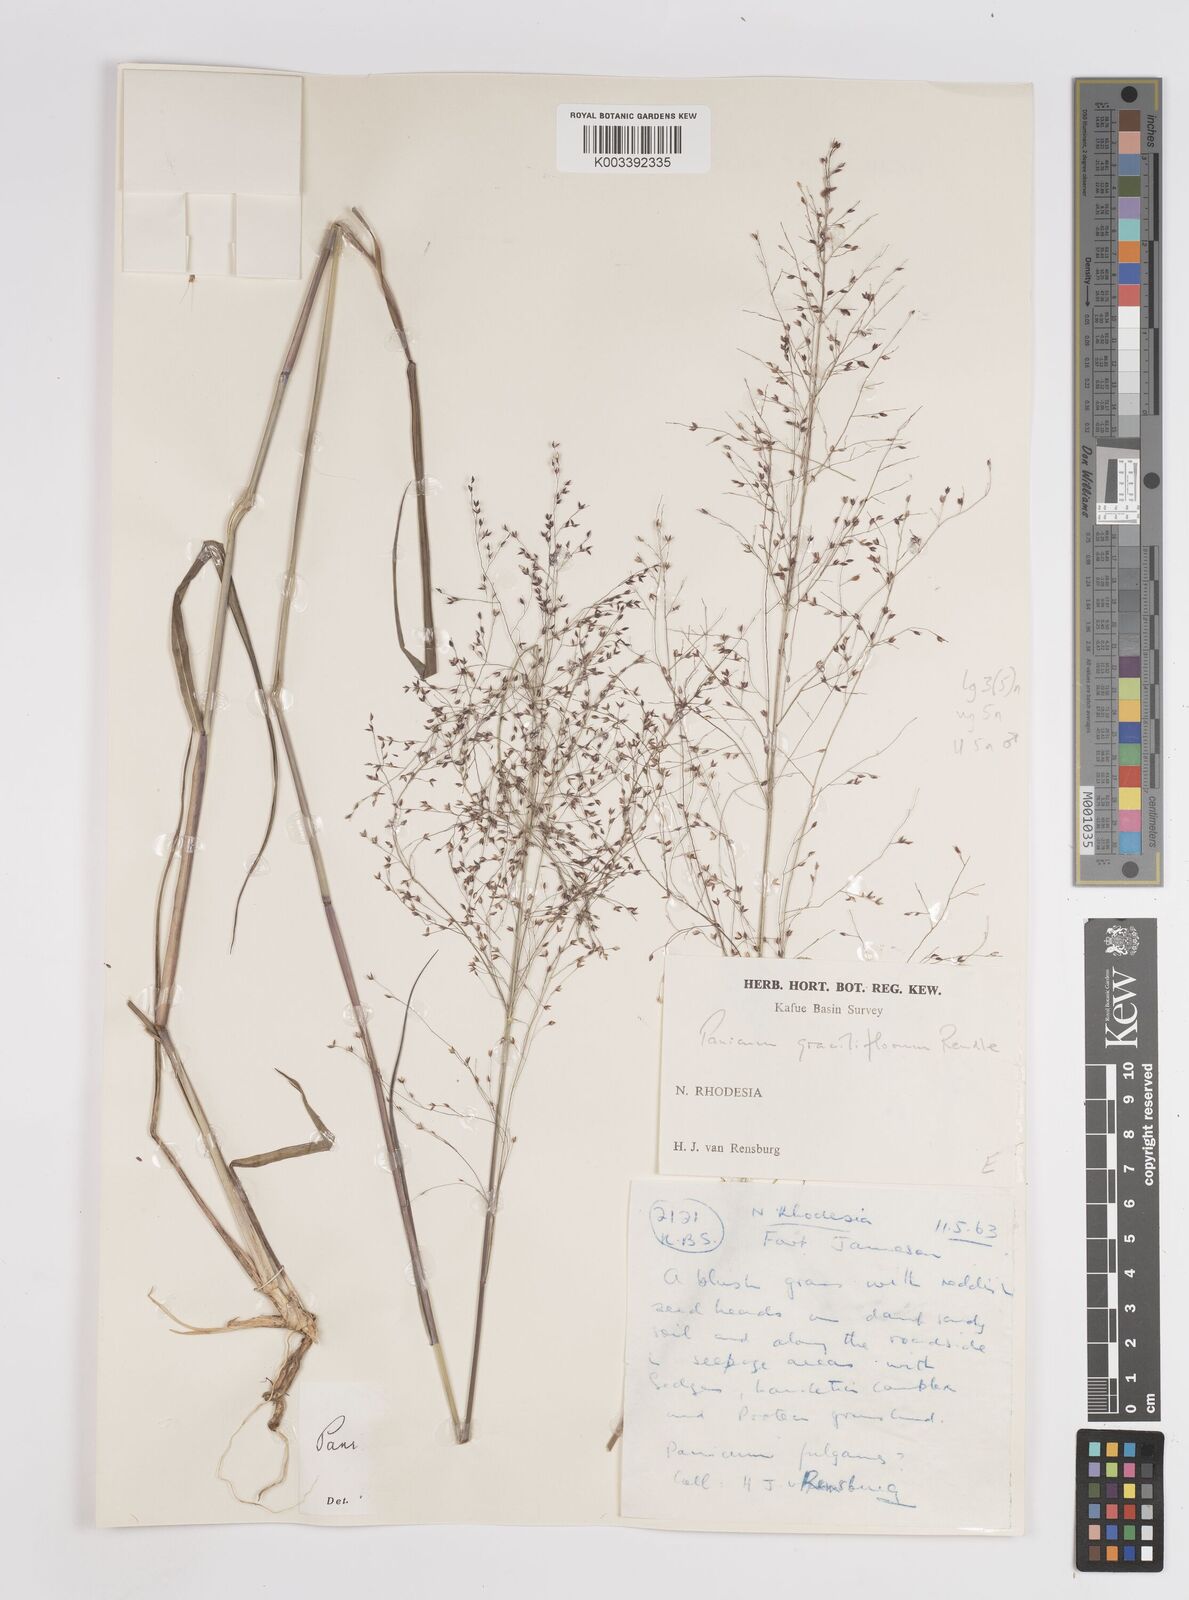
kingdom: Plantae
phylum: Tracheophyta
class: Liliopsida
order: Poales
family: Poaceae
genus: Panicum
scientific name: Panicum graciliflorum
